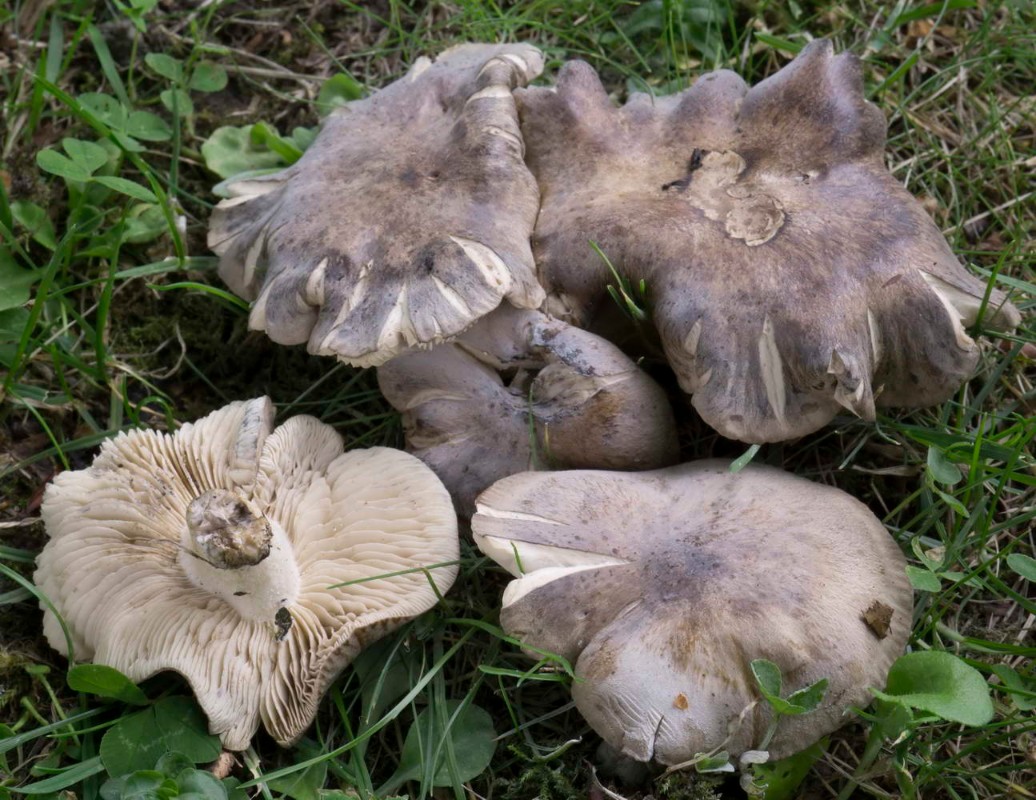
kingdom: Fungi
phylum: Basidiomycota
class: Agaricomycetes
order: Agaricales
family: Lyophyllaceae
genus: Lyophyllum
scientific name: Lyophyllum paelochroum
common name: blånende gråblad
